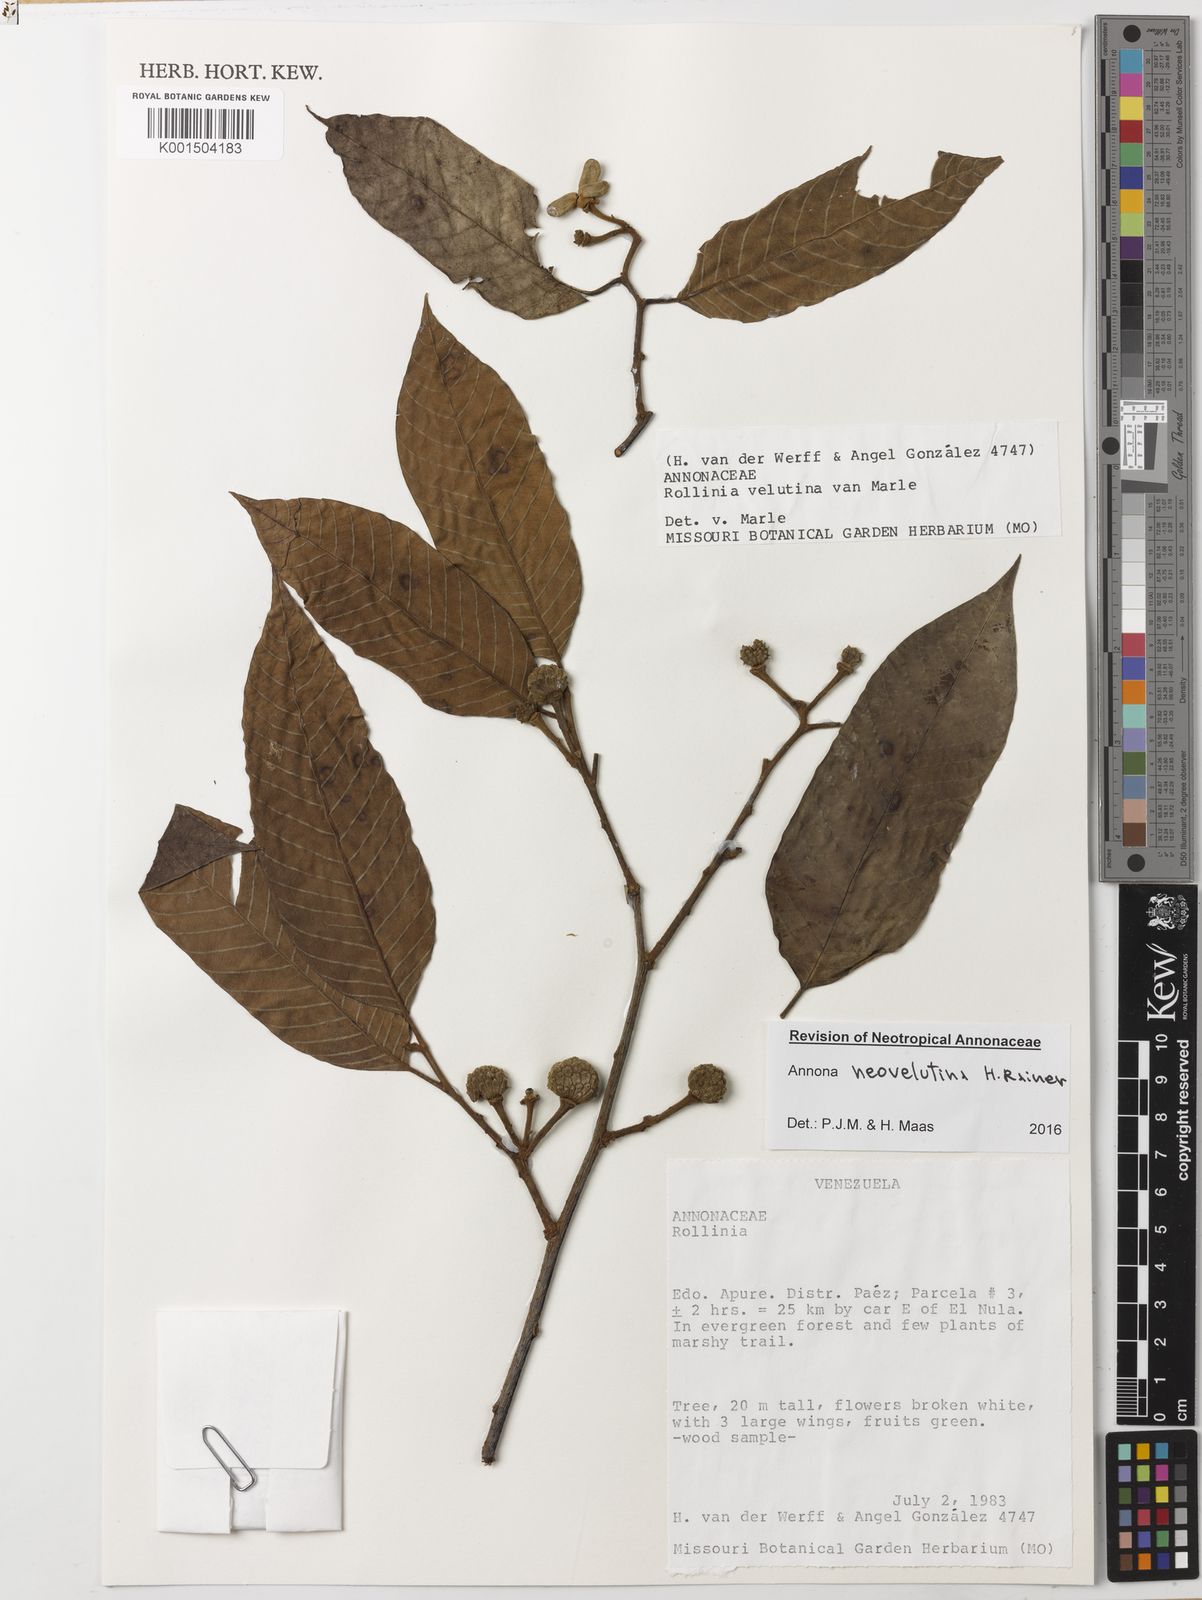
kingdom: Plantae
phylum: Tracheophyta
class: Magnoliopsida
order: Magnoliales
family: Annonaceae
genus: Annona
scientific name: Annona neovelutina
